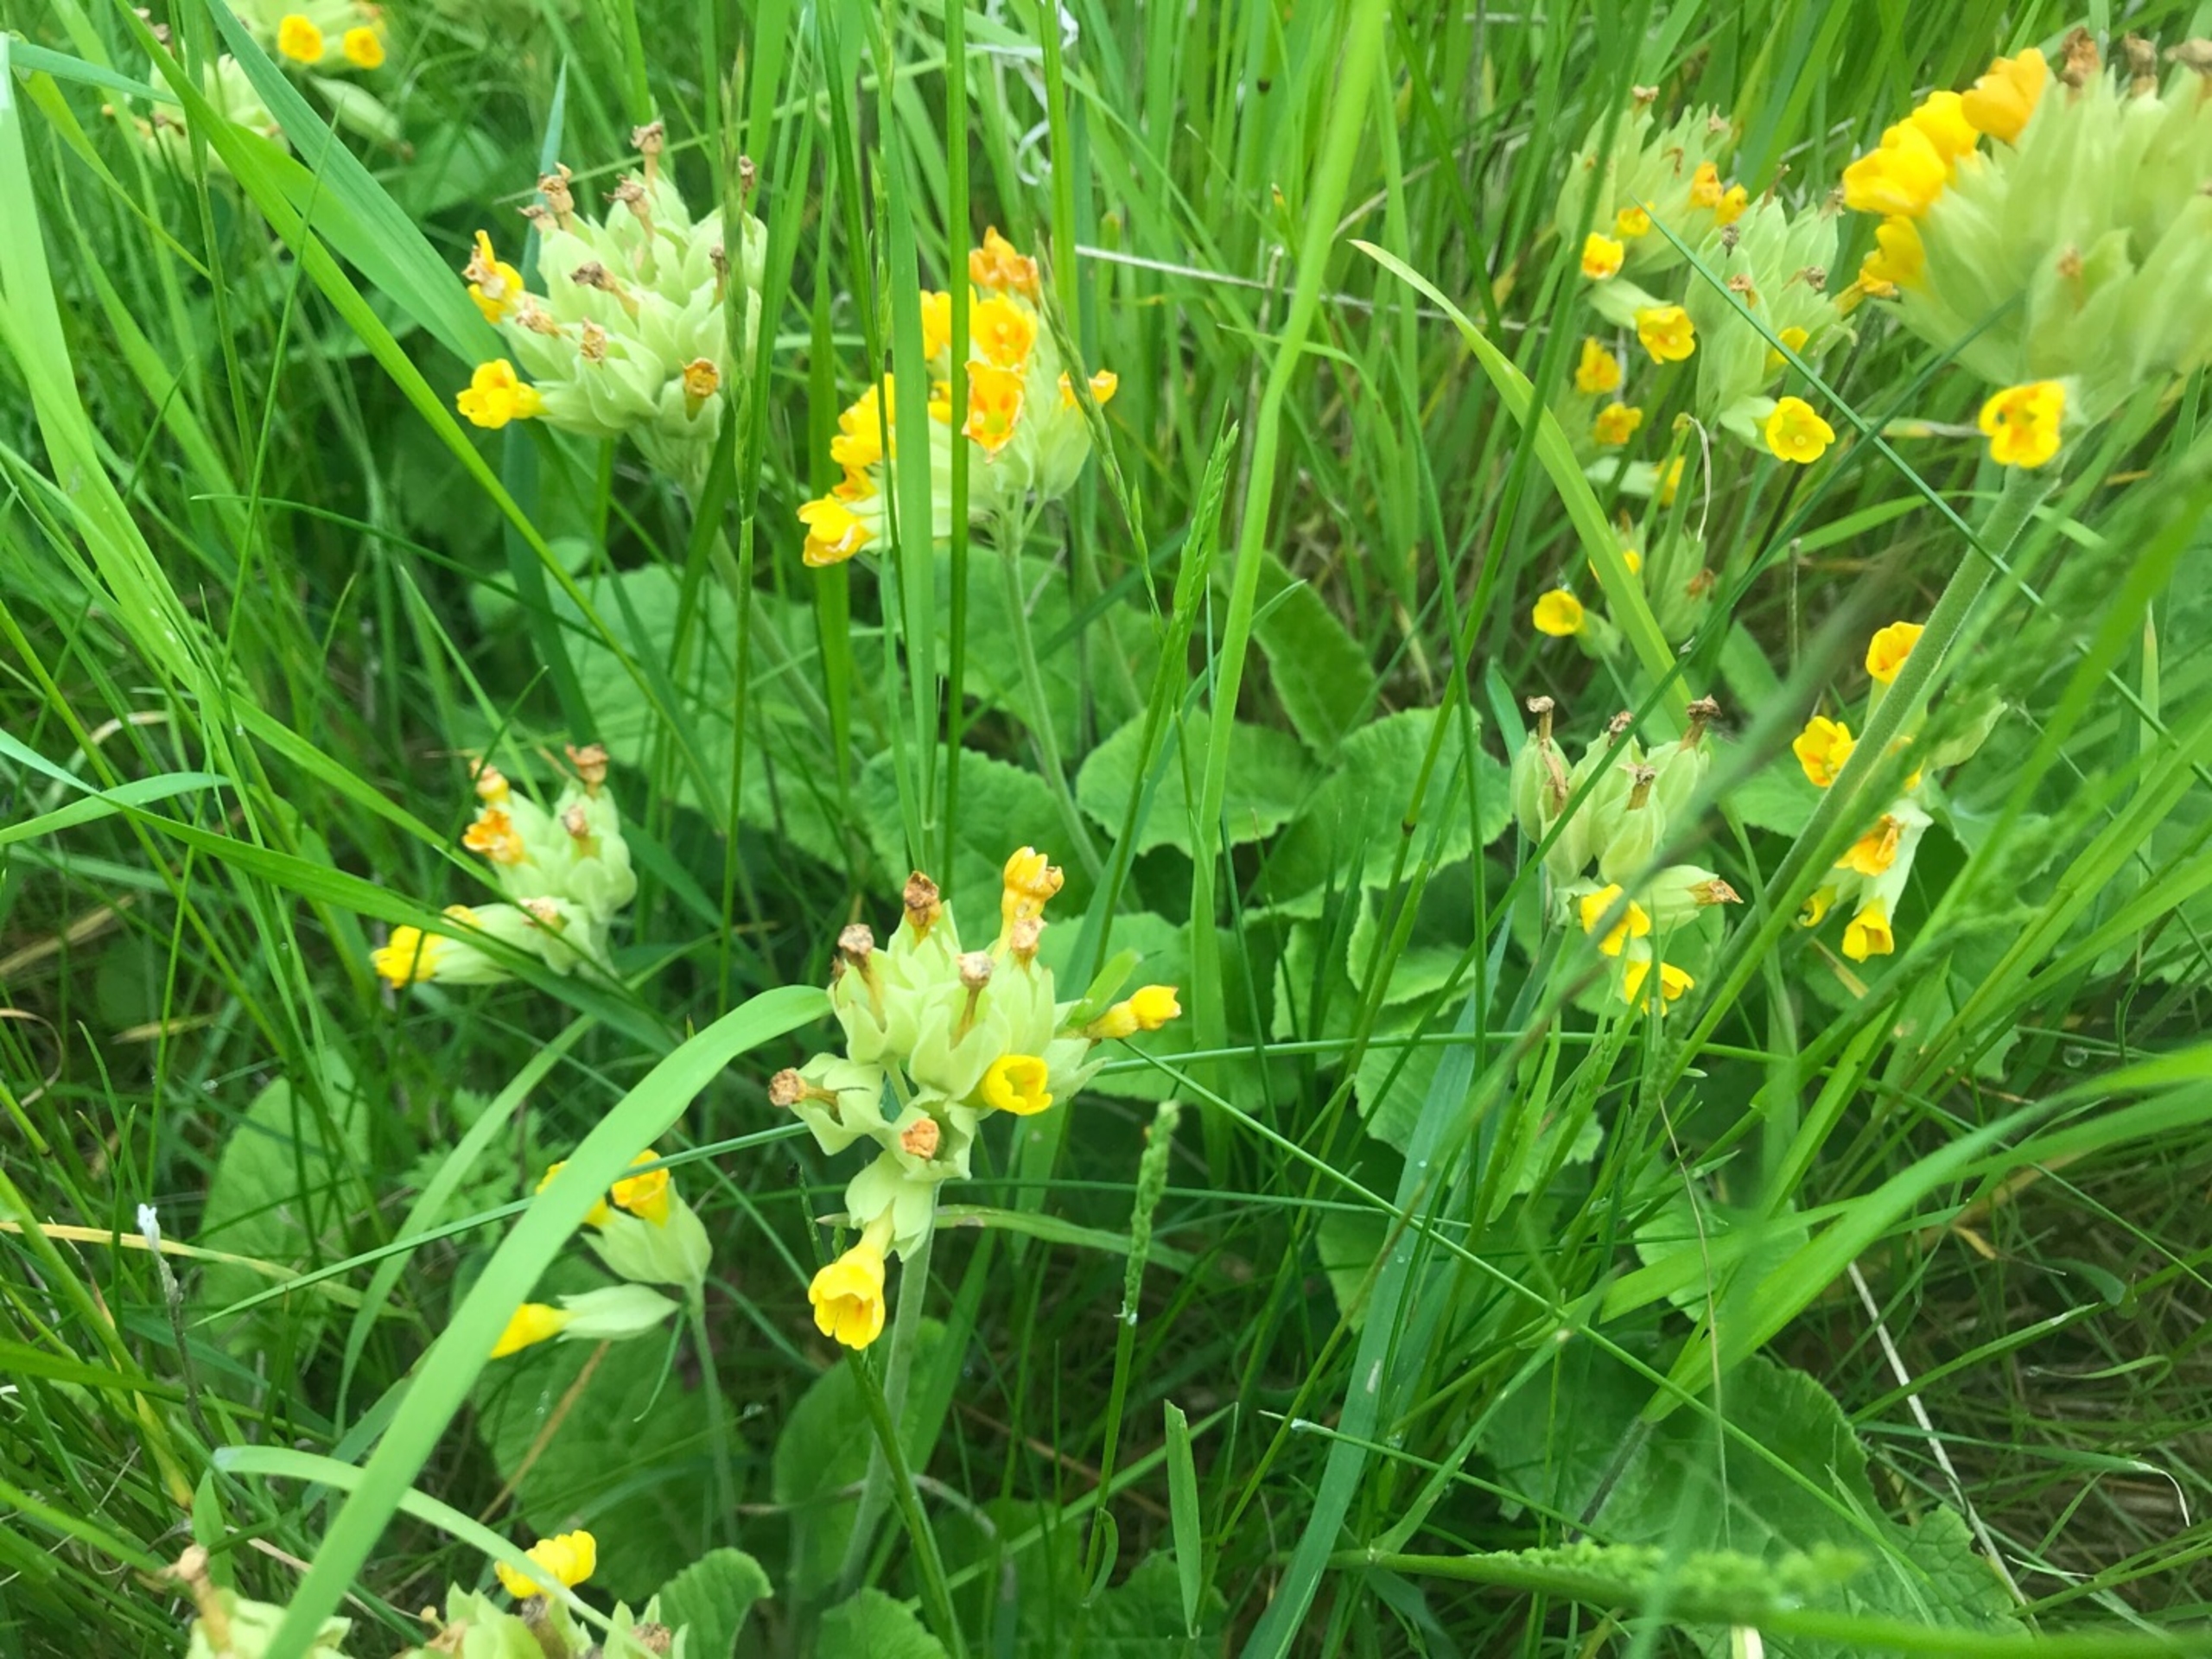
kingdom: Plantae
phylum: Tracheophyta
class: Magnoliopsida
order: Ericales
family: Primulaceae
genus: Primula
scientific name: Primula veris
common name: Hulkravet kodriver
